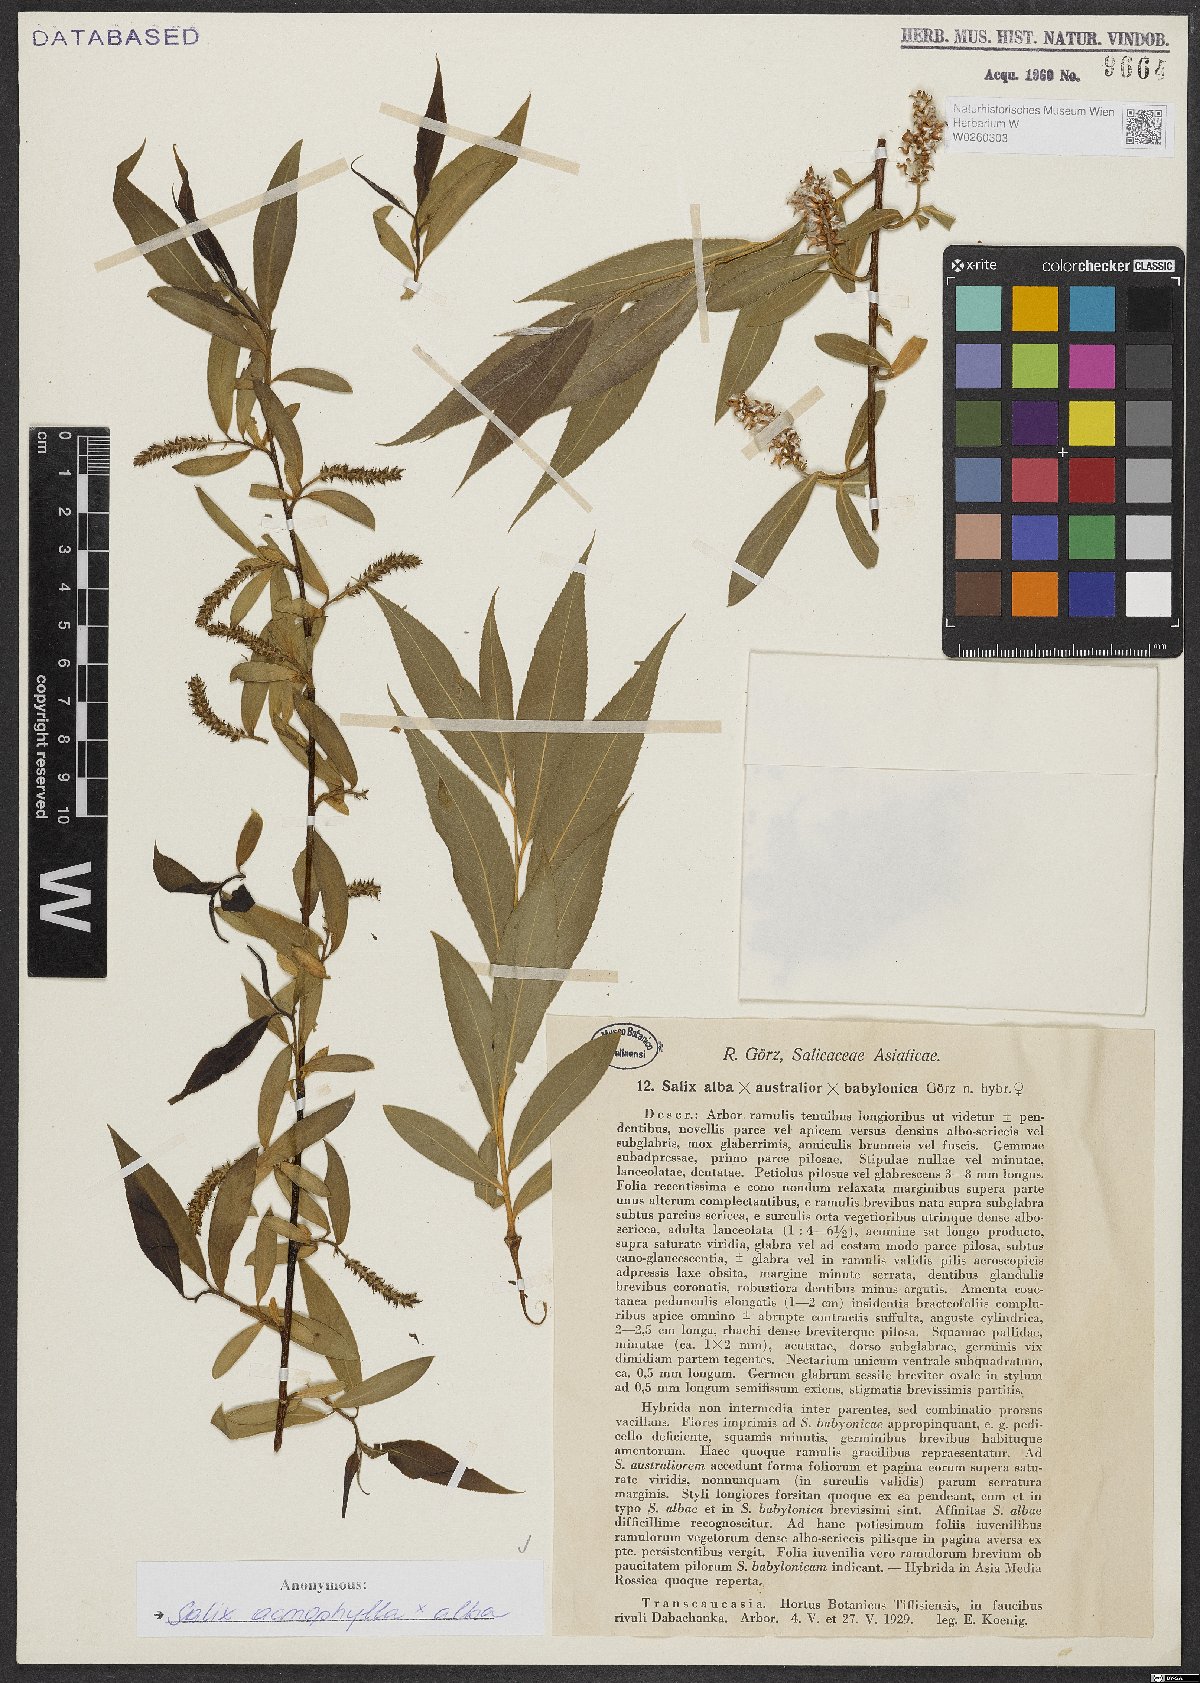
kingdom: Plantae
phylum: Tracheophyta
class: Magnoliopsida
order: Malpighiales
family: Salicaceae
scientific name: Salicaceae
